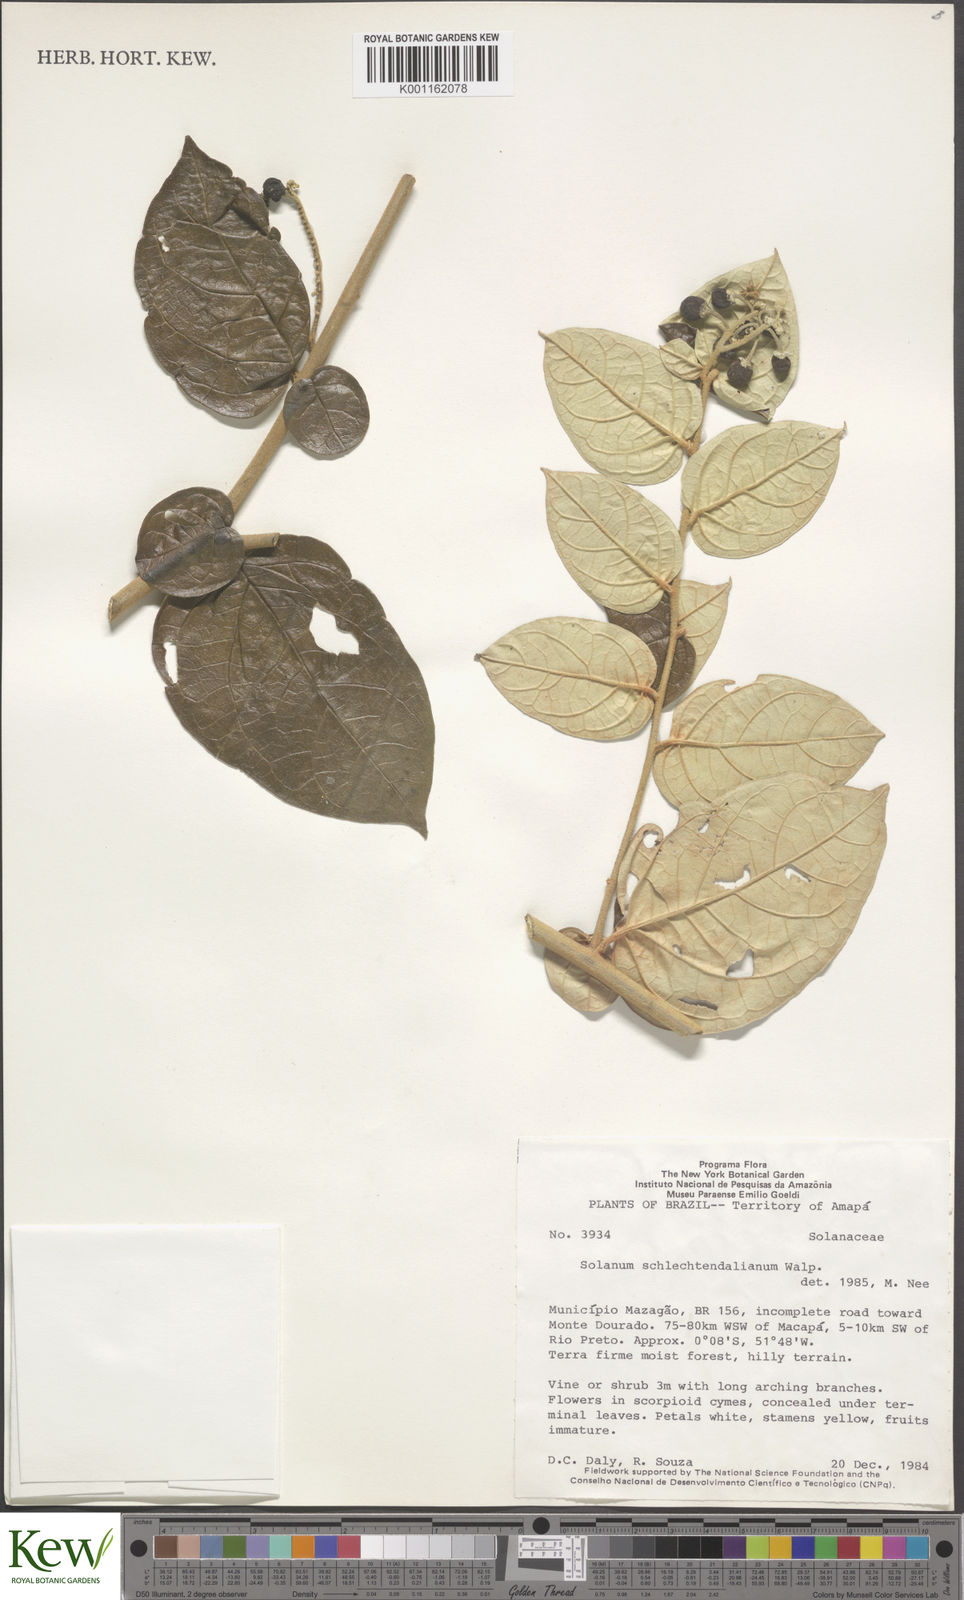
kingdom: Plantae
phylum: Tracheophyta
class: Magnoliopsida
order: Solanales
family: Solanaceae
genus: Solanum
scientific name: Solanum schlechtendalianum
